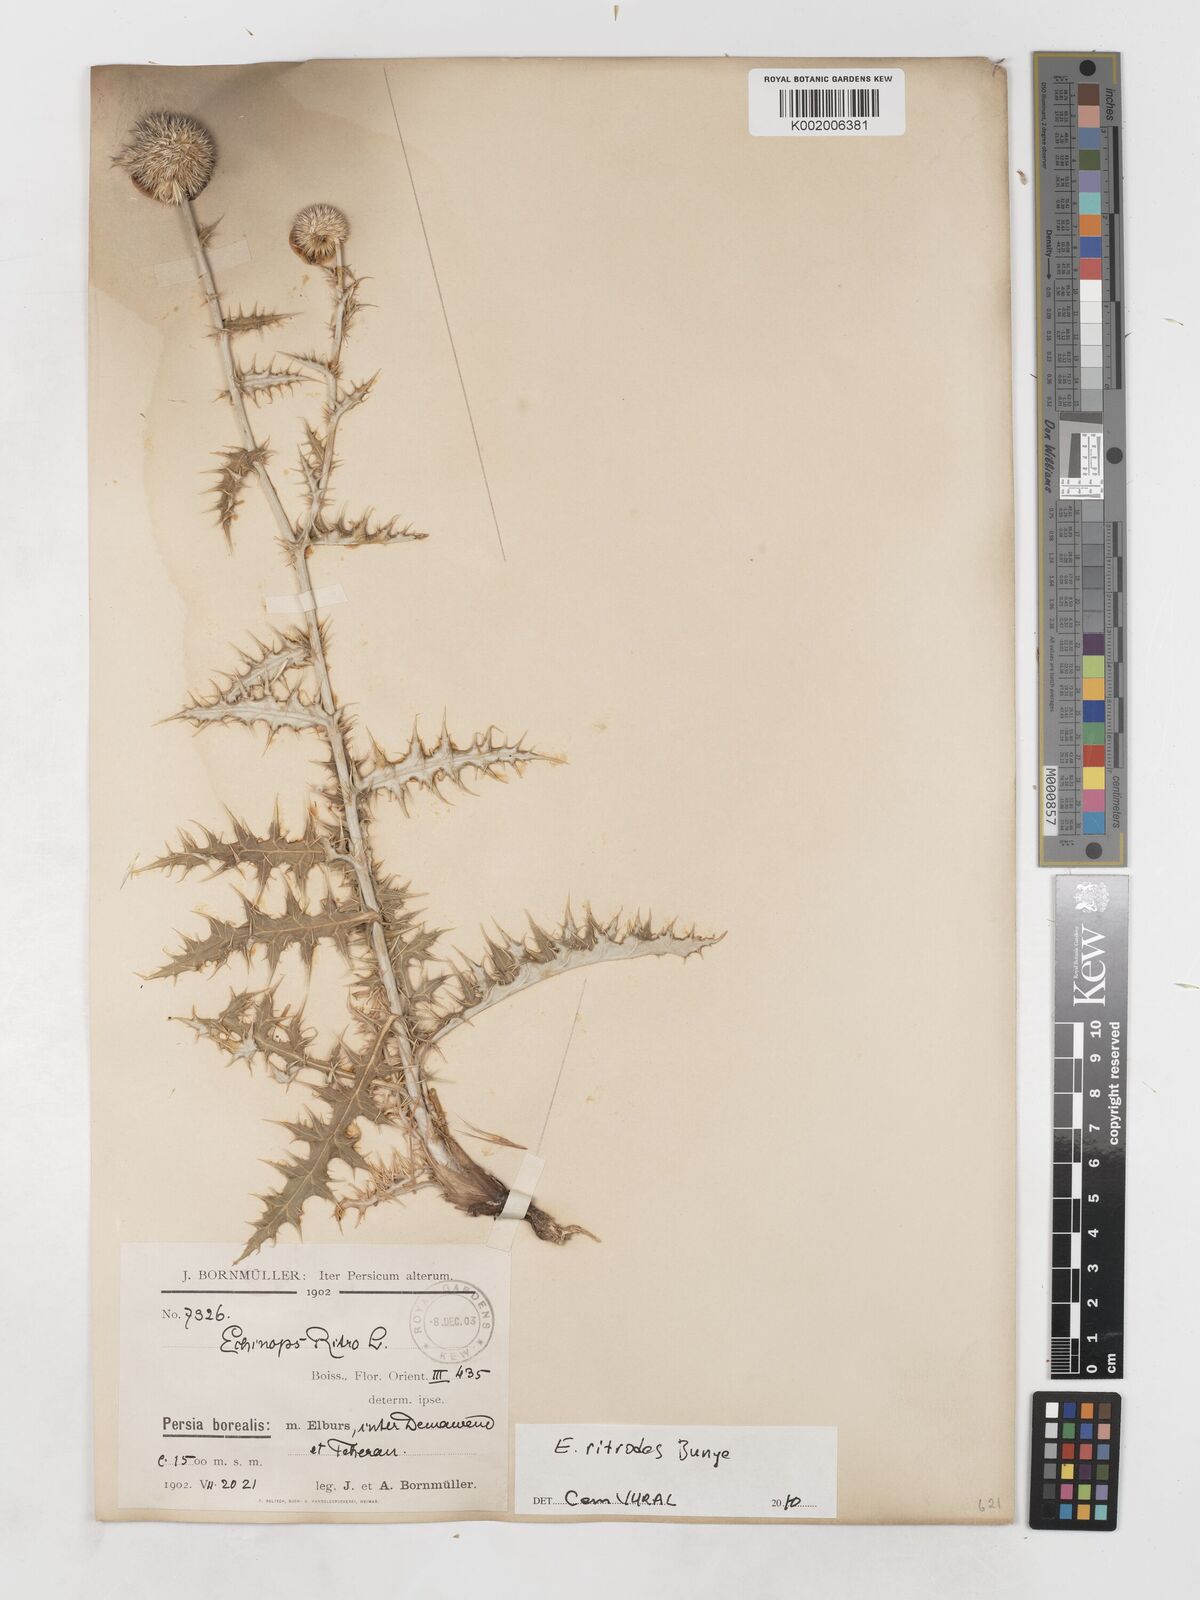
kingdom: Plantae
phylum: Tracheophyta
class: Magnoliopsida
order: Asterales
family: Asteraceae
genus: Echinops
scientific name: Echinops ritrodes
